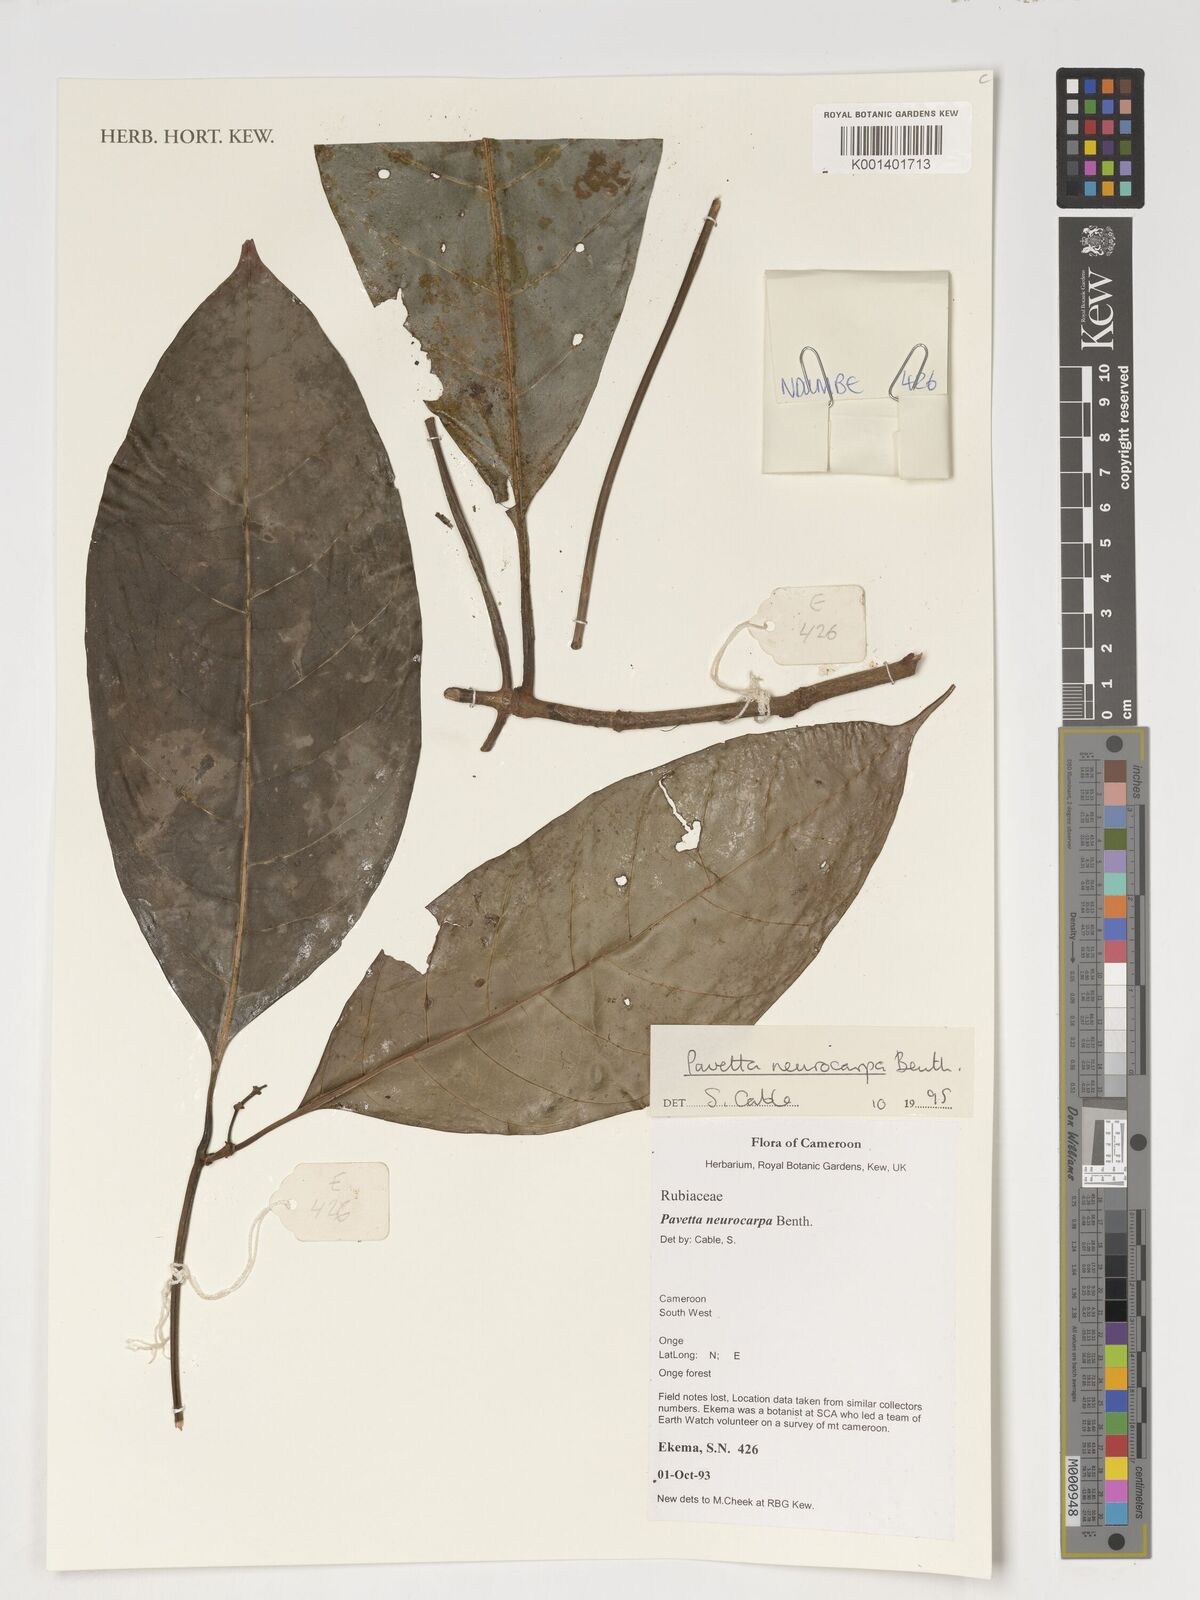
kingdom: Plantae
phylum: Tracheophyta
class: Magnoliopsida
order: Gentianales
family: Rubiaceae
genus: Pavetta
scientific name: Pavetta neurocarpa
